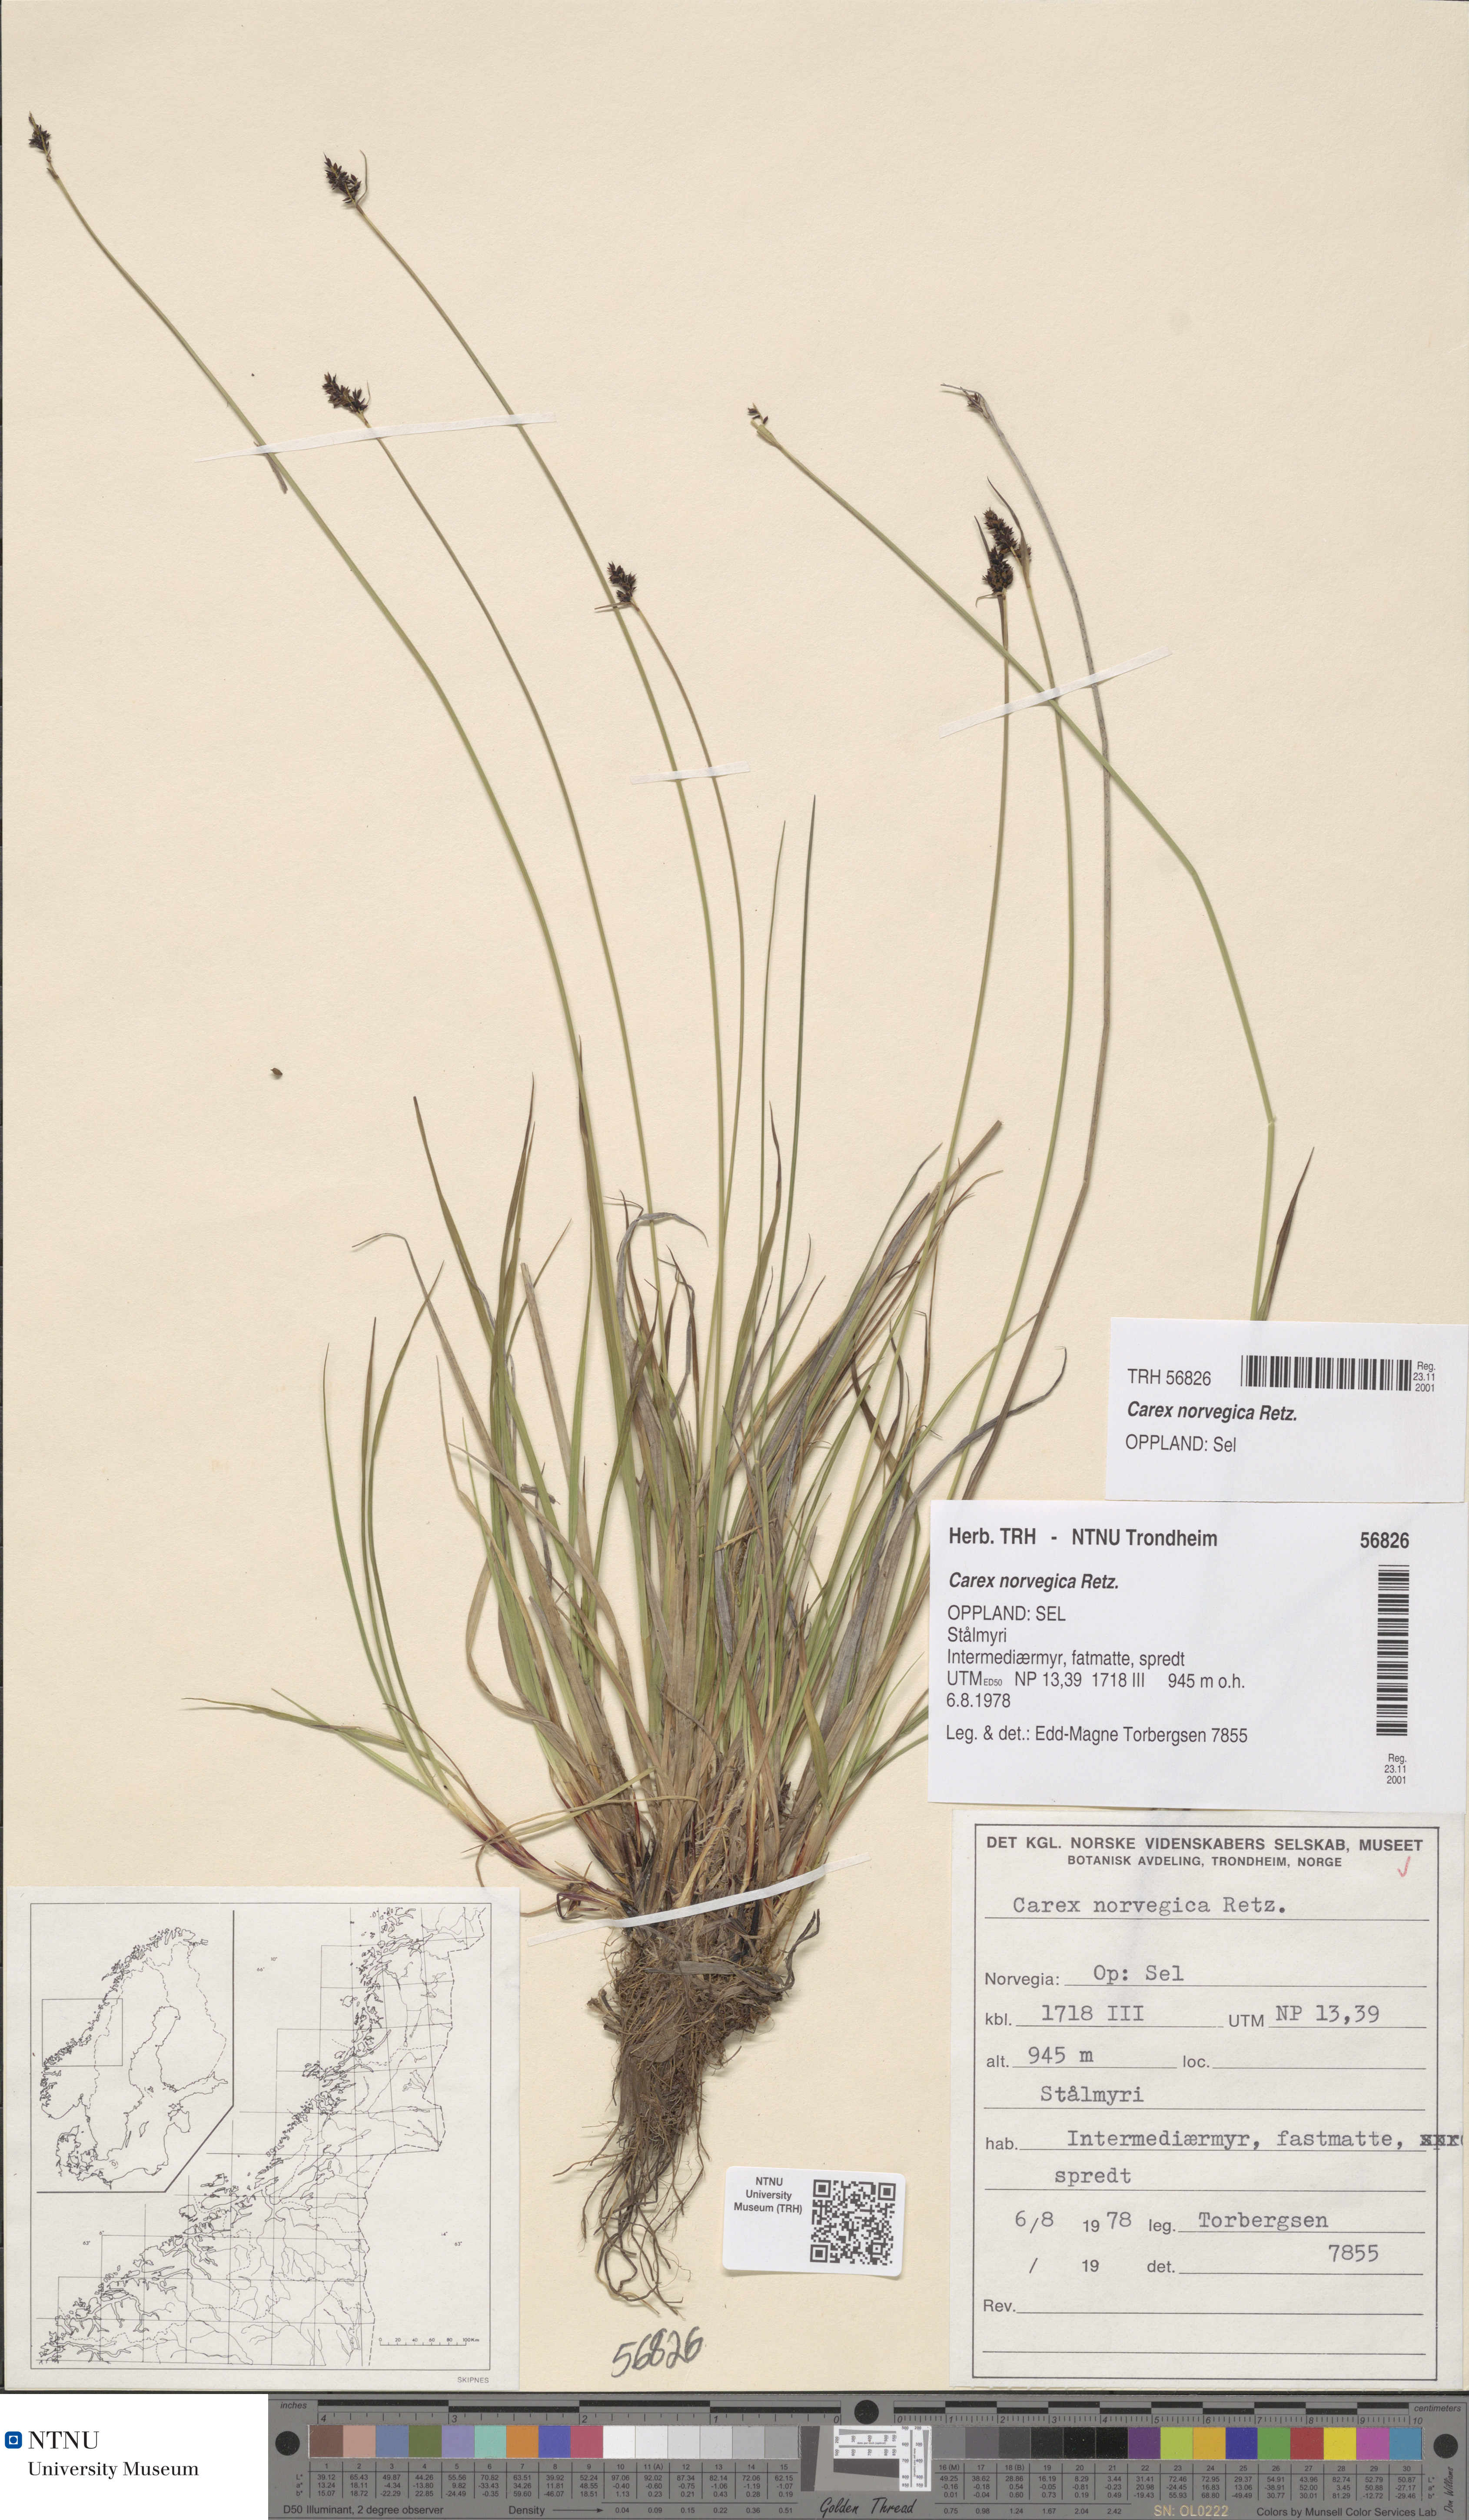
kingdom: Plantae
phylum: Tracheophyta
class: Liliopsida
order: Poales
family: Cyperaceae
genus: Carex
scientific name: Carex norvegica
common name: Close-headed alpine-sedge
